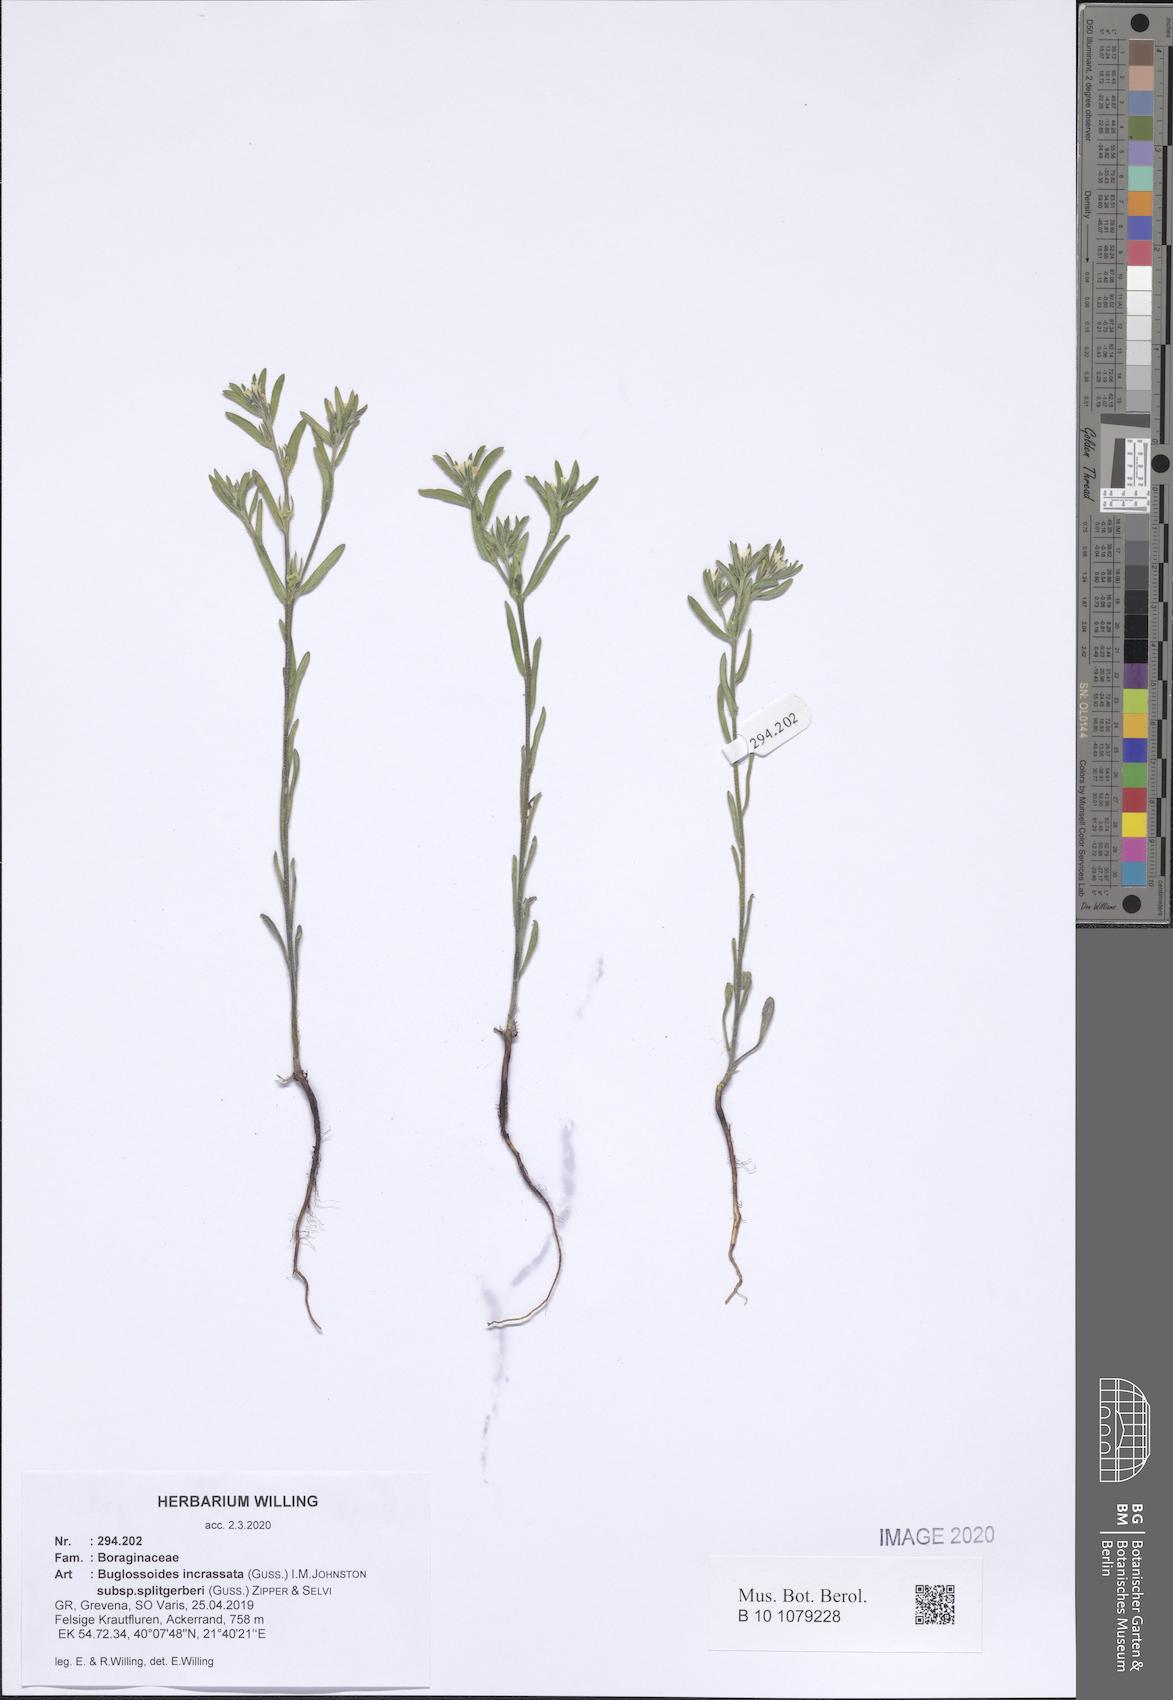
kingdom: Plantae
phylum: Tracheophyta
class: Magnoliopsida
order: Boraginales
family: Boraginaceae
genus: Buglossoides
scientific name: Buglossoides incrassata
